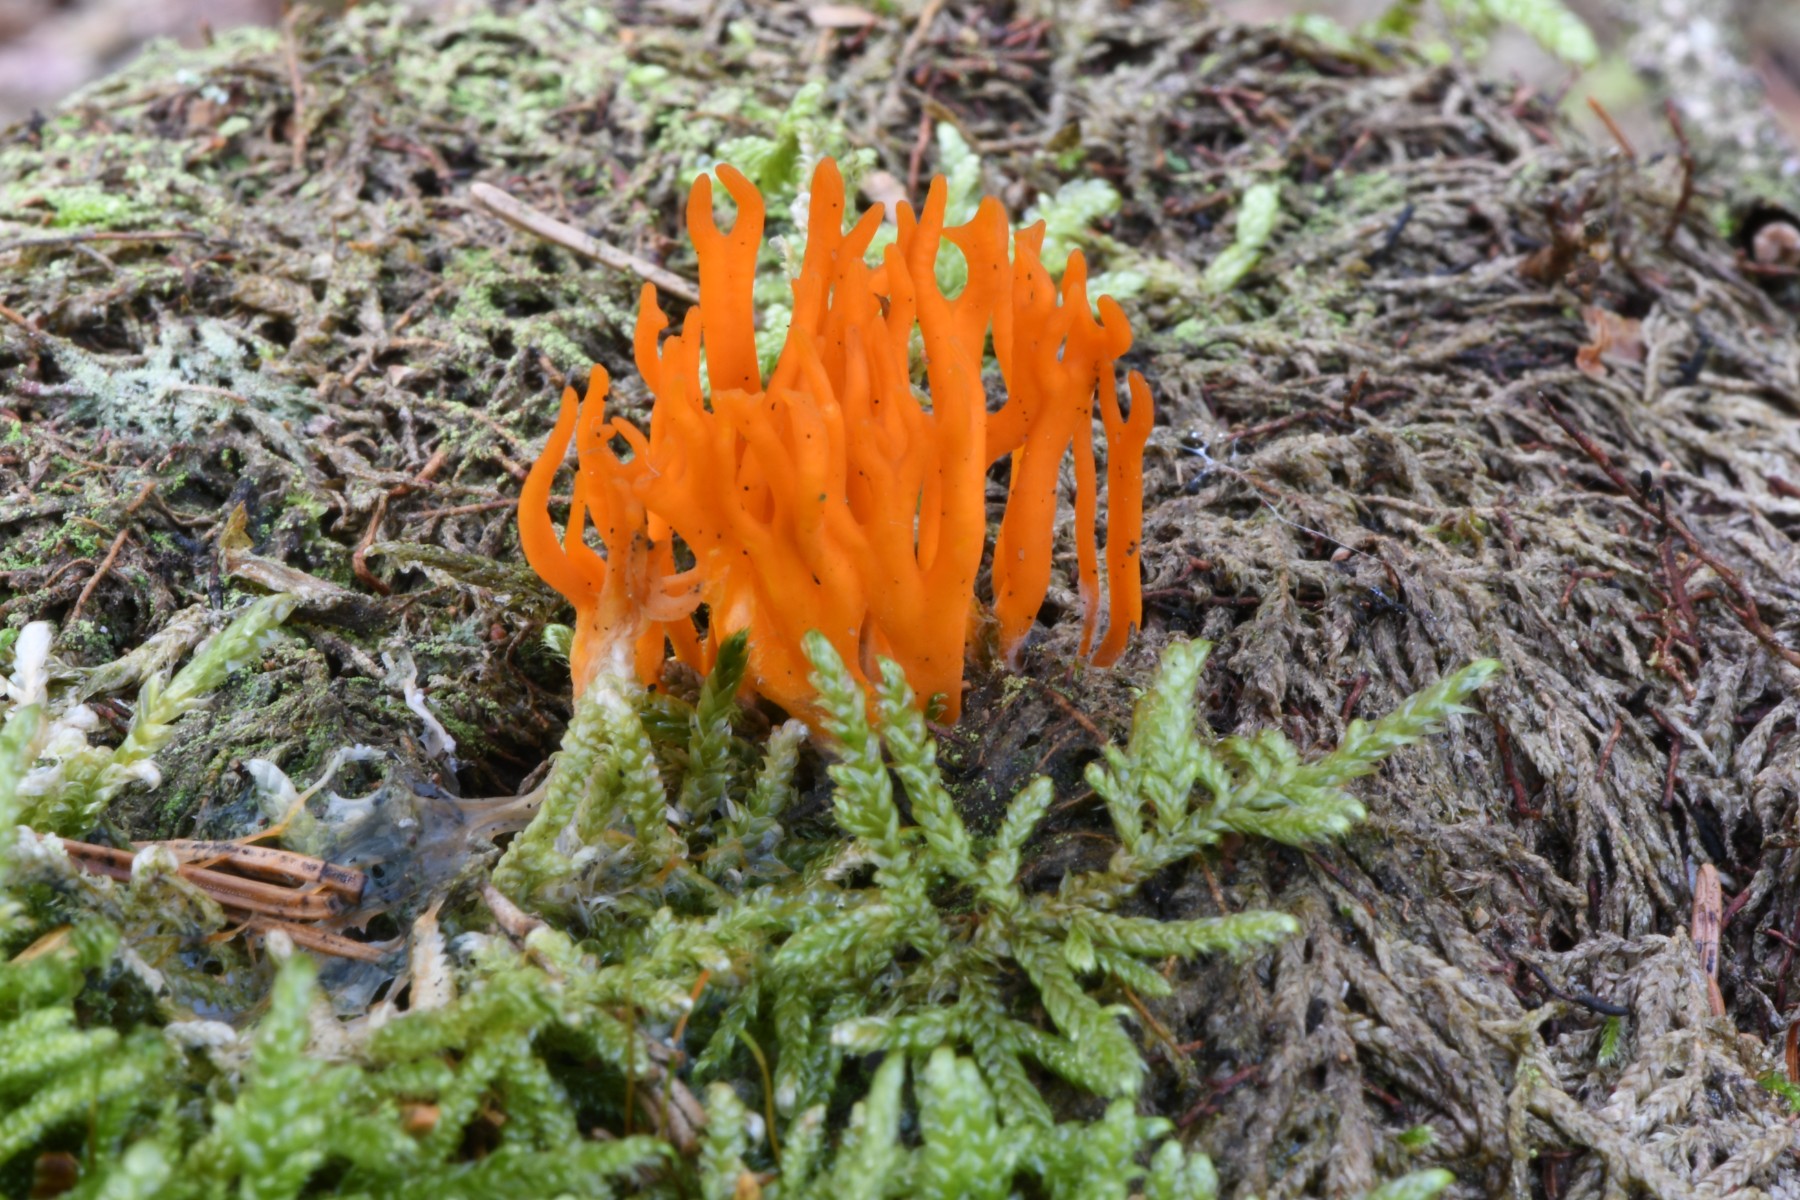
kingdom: Fungi
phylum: Basidiomycota
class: Dacrymycetes
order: Dacrymycetales
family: Dacrymycetaceae
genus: Calocera
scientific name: Calocera viscosa
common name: almindelig guldgaffel
